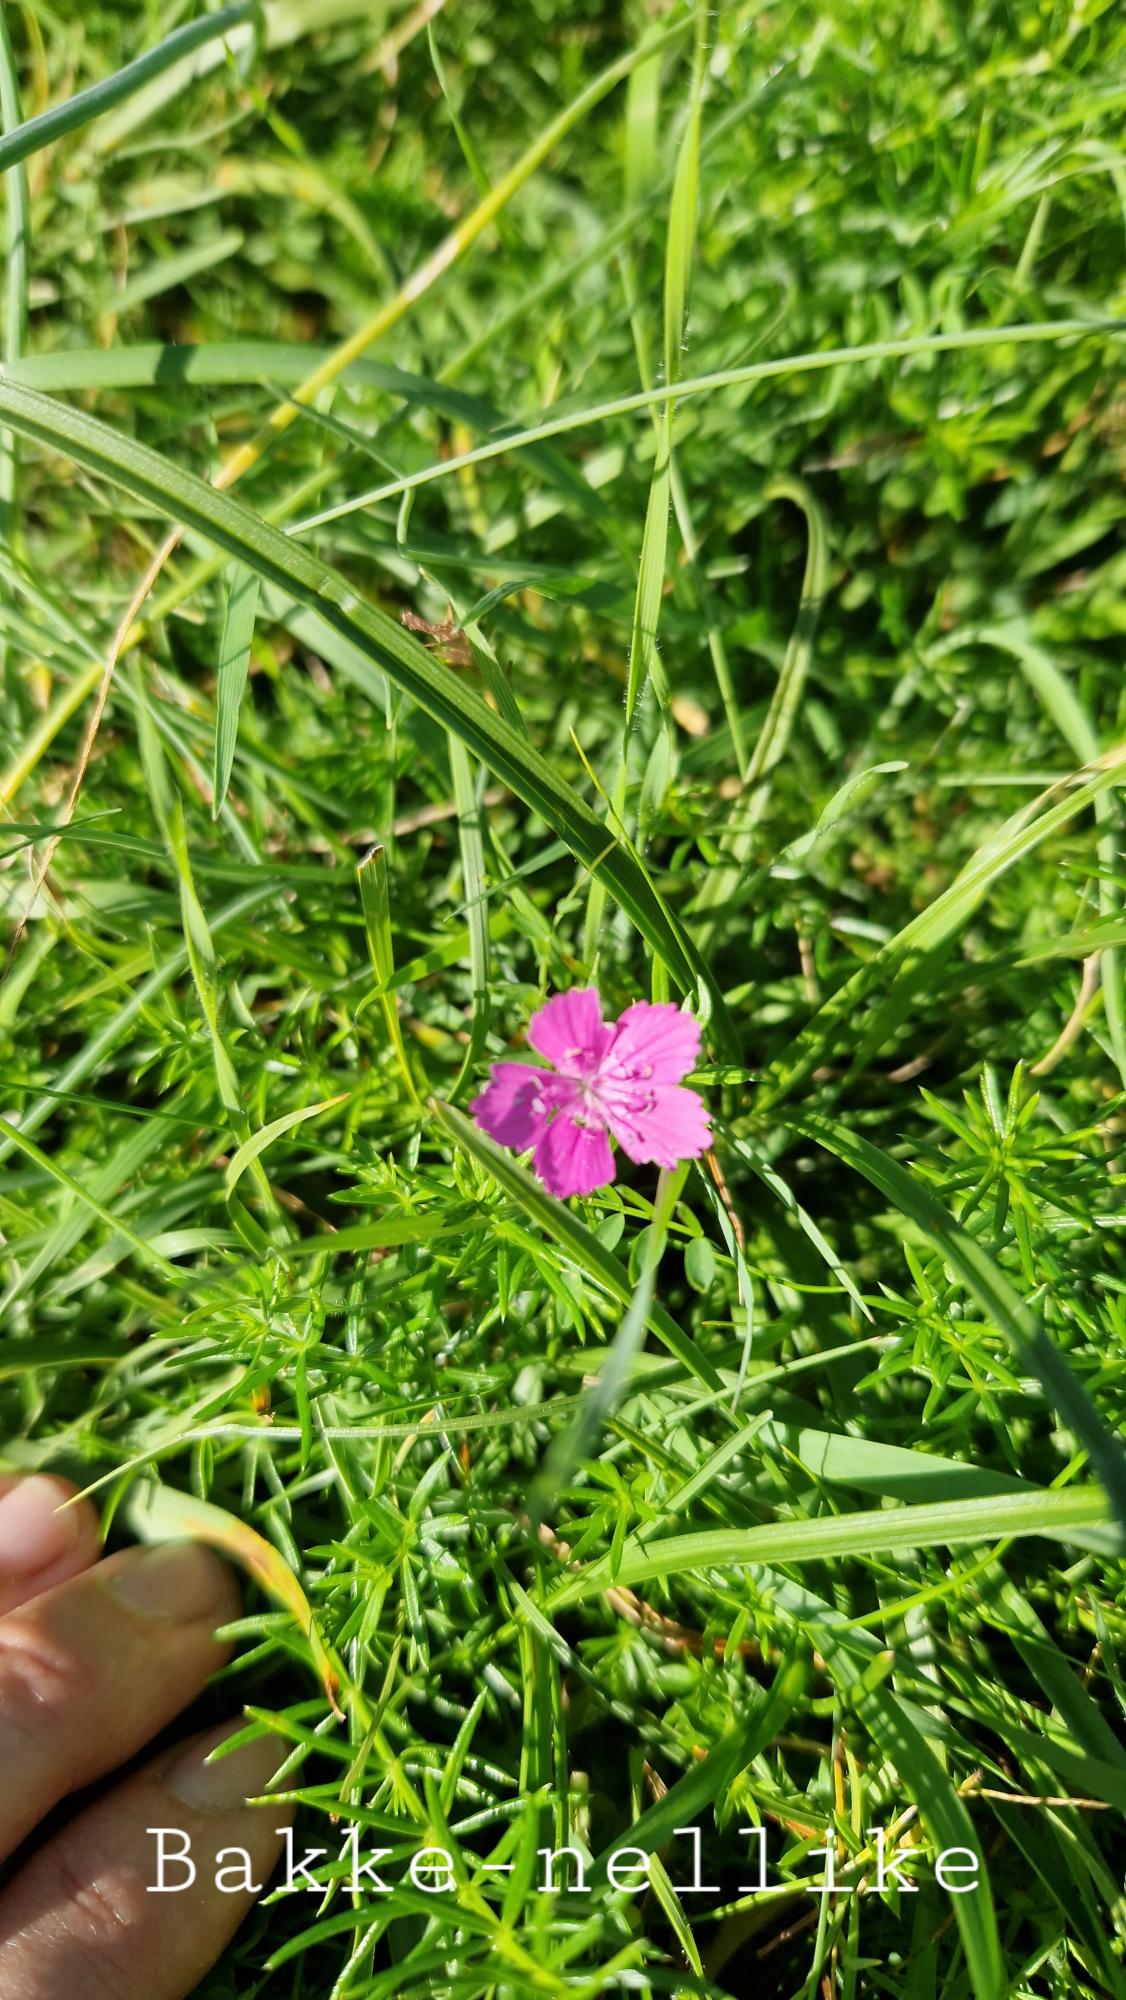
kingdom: Plantae
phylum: Tracheophyta
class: Magnoliopsida
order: Caryophyllales
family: Caryophyllaceae
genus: Dianthus
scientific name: Dianthus deltoides
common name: Bakke-nellike
